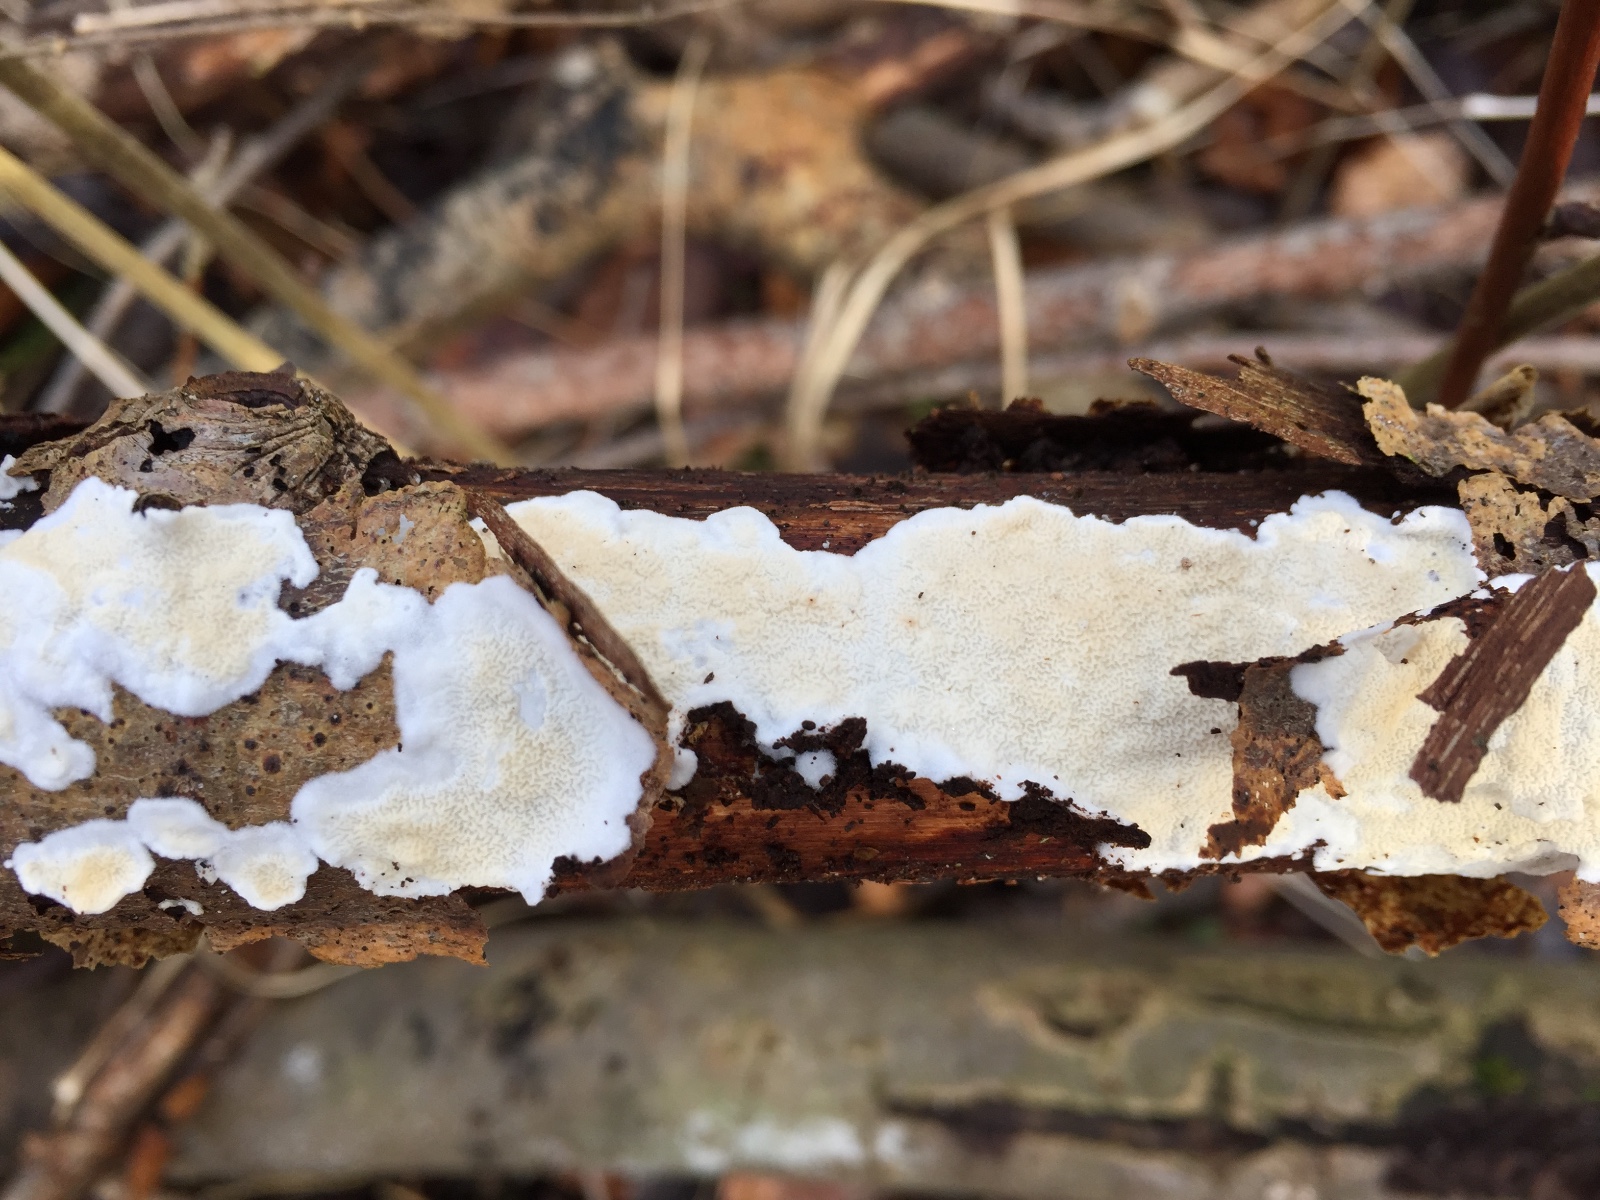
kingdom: Fungi
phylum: Basidiomycota
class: Agaricomycetes
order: Polyporales
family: Irpicaceae
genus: Byssomerulius
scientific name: Byssomerulius corium
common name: læder-åresvamp
